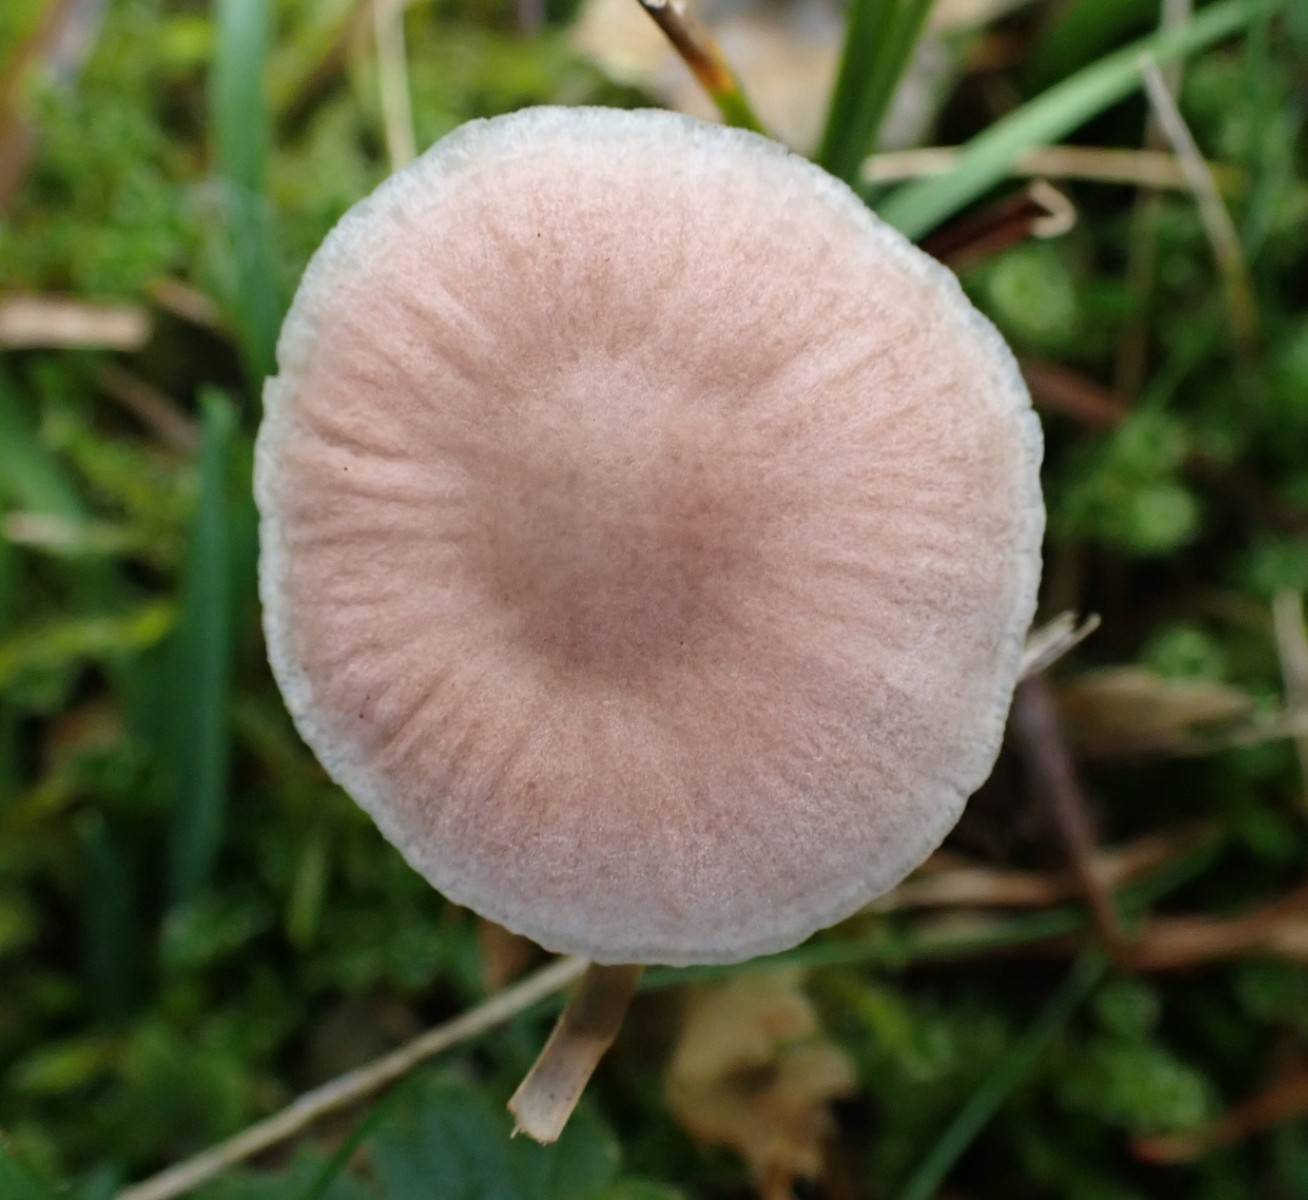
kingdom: Fungi
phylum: Basidiomycota
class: Agaricomycetes
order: Agaricales
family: Mycenaceae
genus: Mycena
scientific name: Mycena
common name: huesvamp
